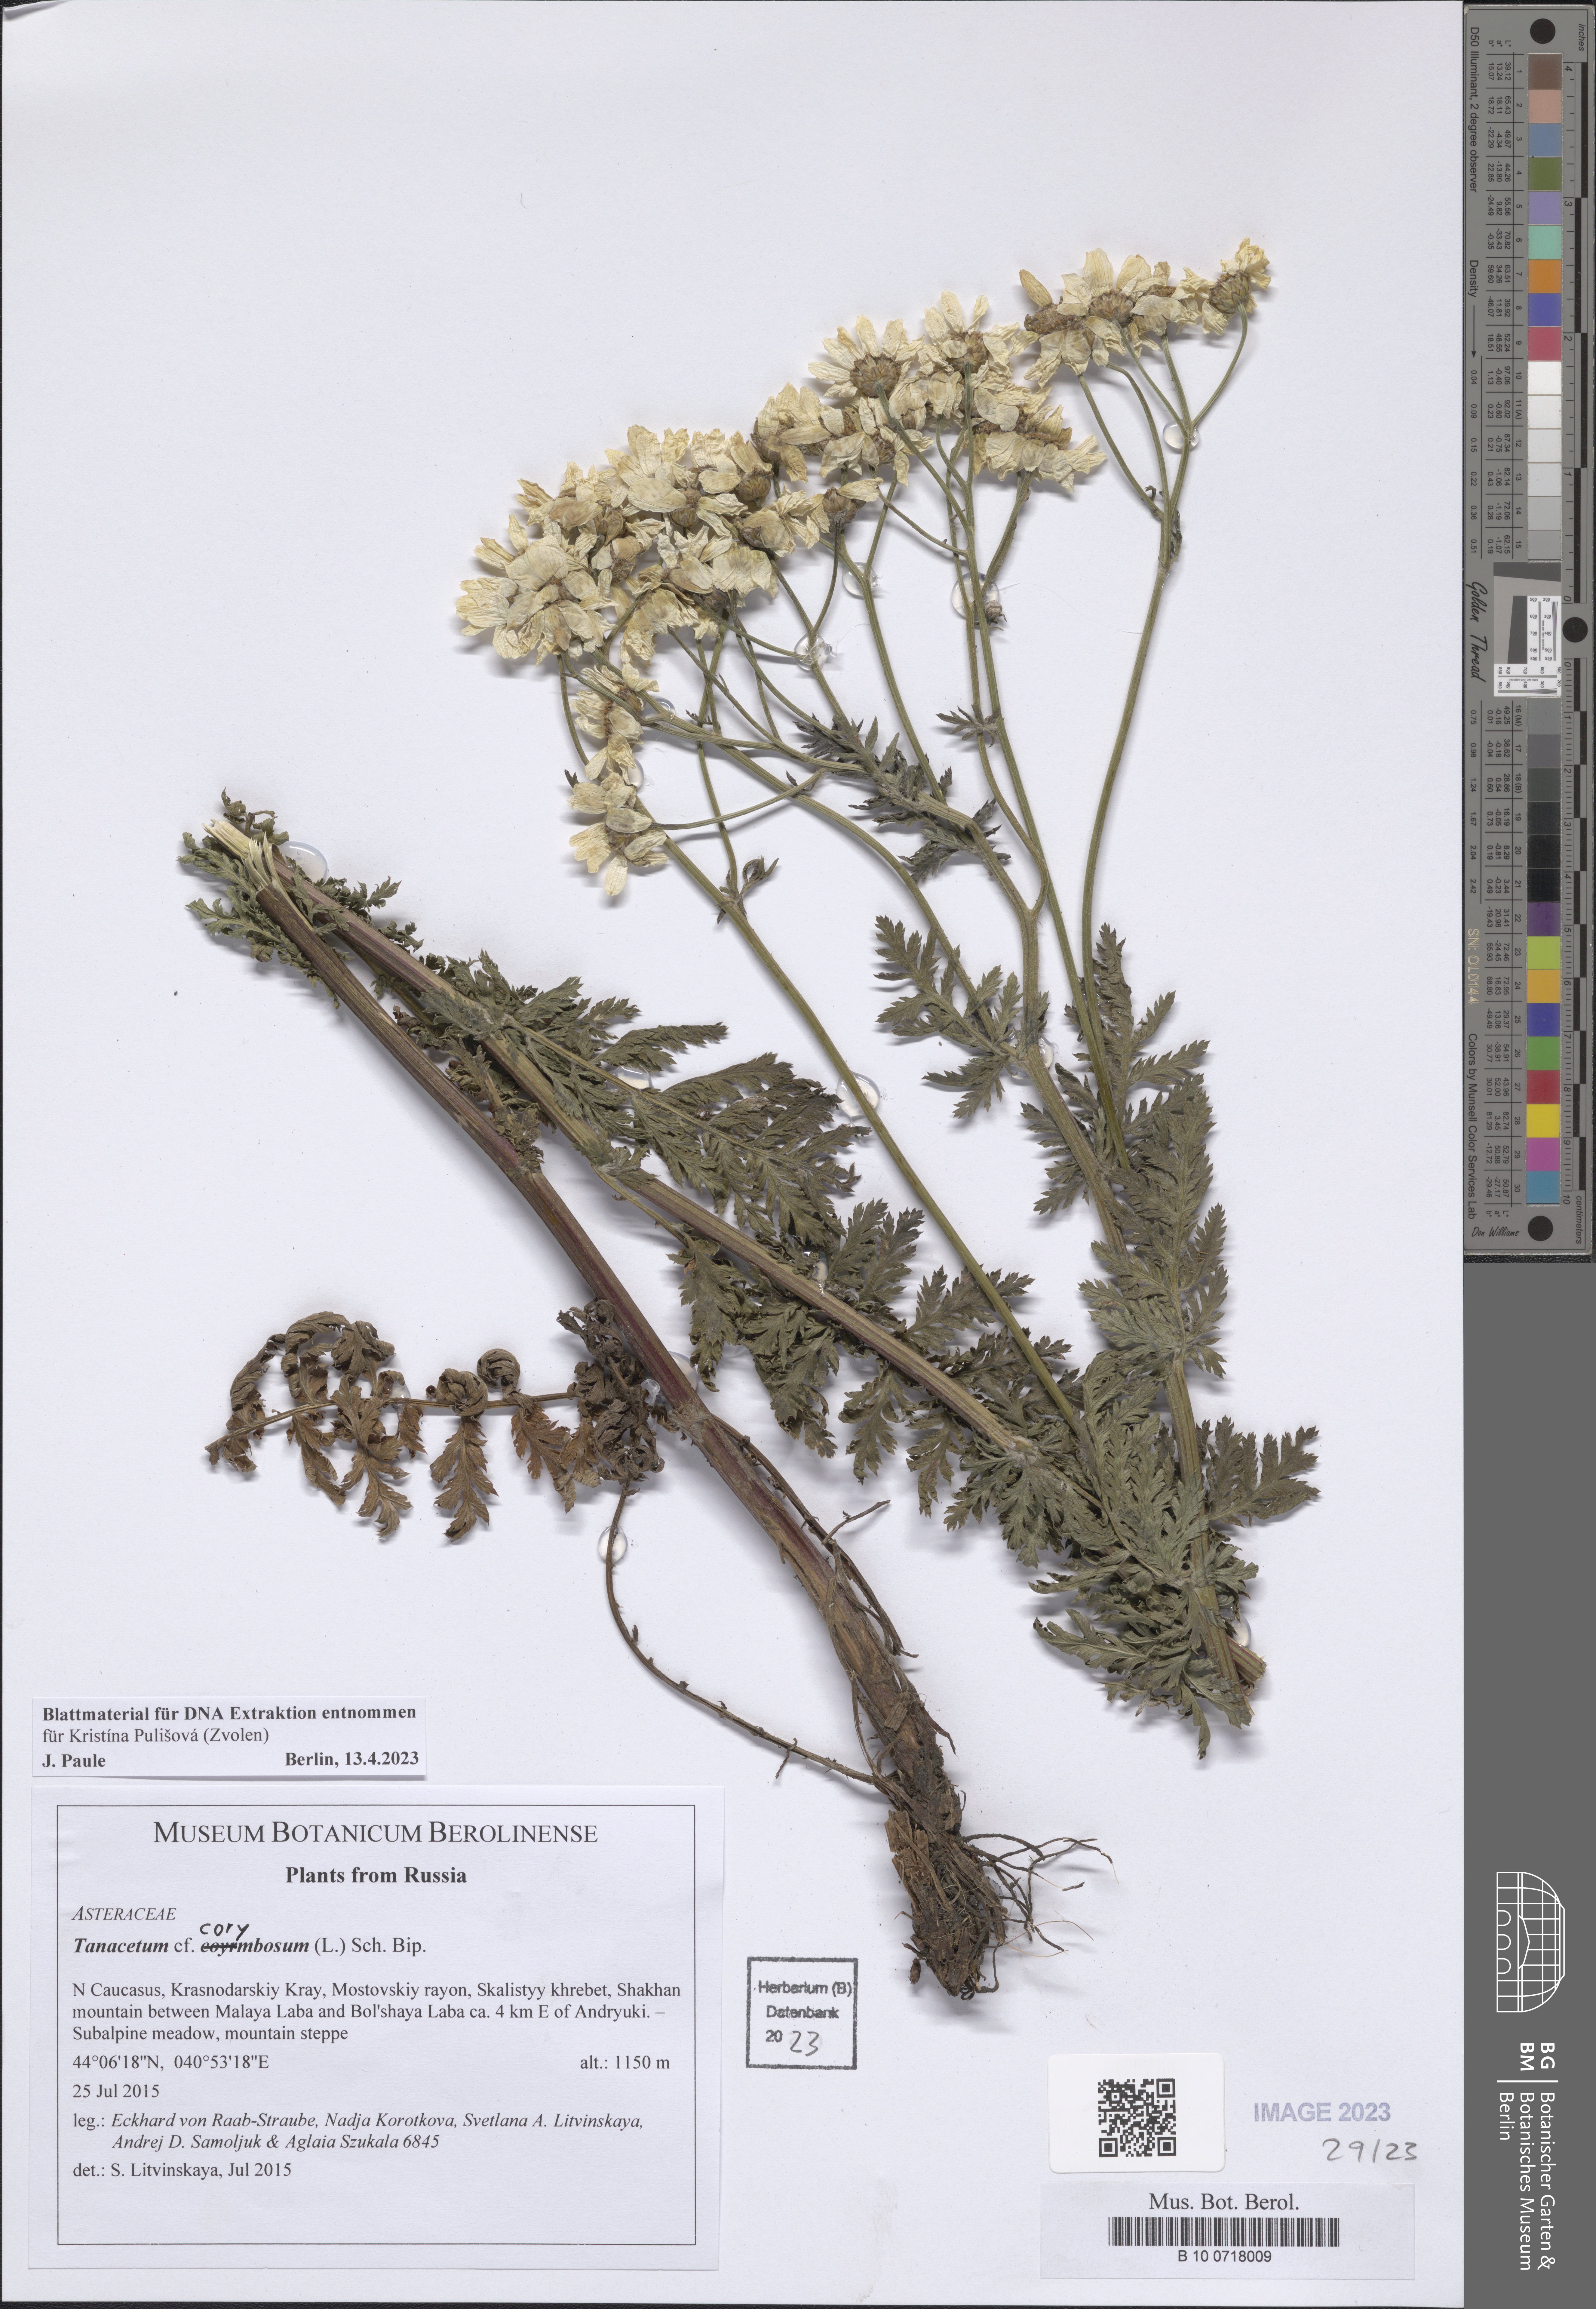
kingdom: Plantae
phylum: Tracheophyta
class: Magnoliopsida
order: Asterales
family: Asteraceae
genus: Tanacetum
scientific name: Tanacetum corymbosum
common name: Scentless feverfew
